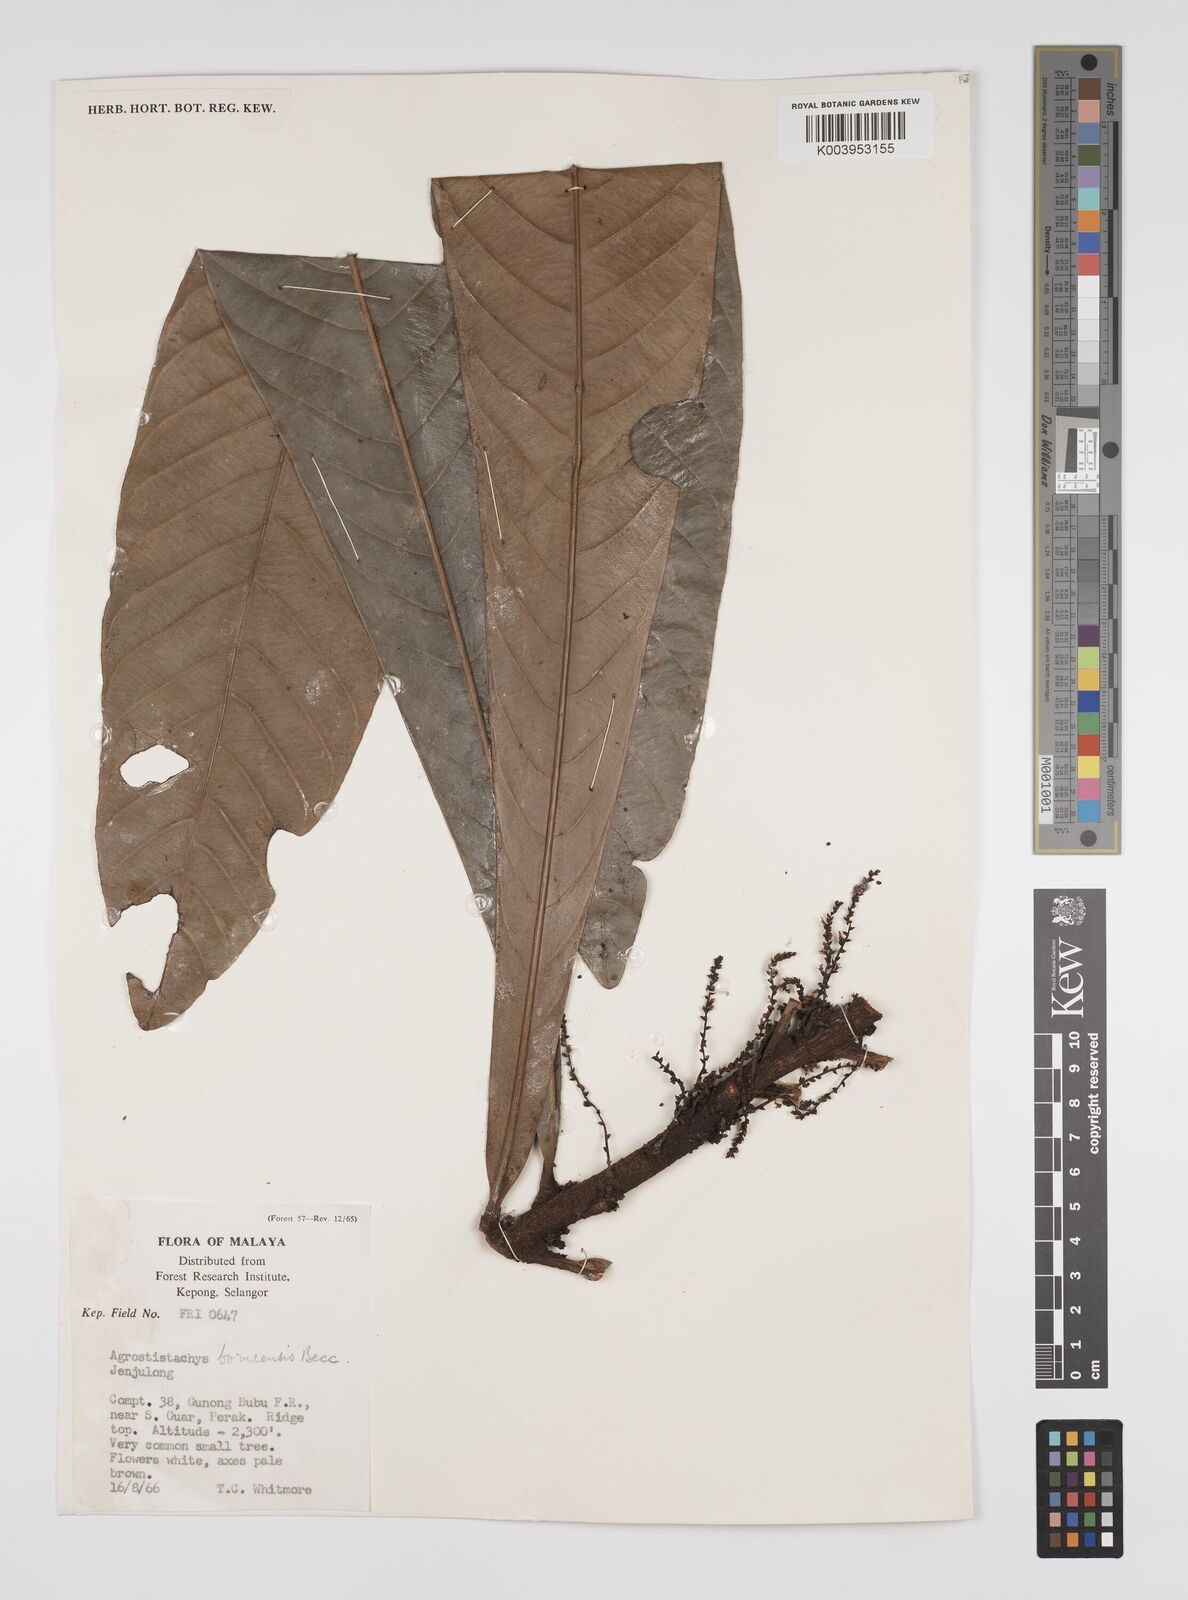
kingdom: Plantae
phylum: Tracheophyta
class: Magnoliopsida
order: Malpighiales
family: Euphorbiaceae
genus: Agrostistachys
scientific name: Agrostistachys borneensis
